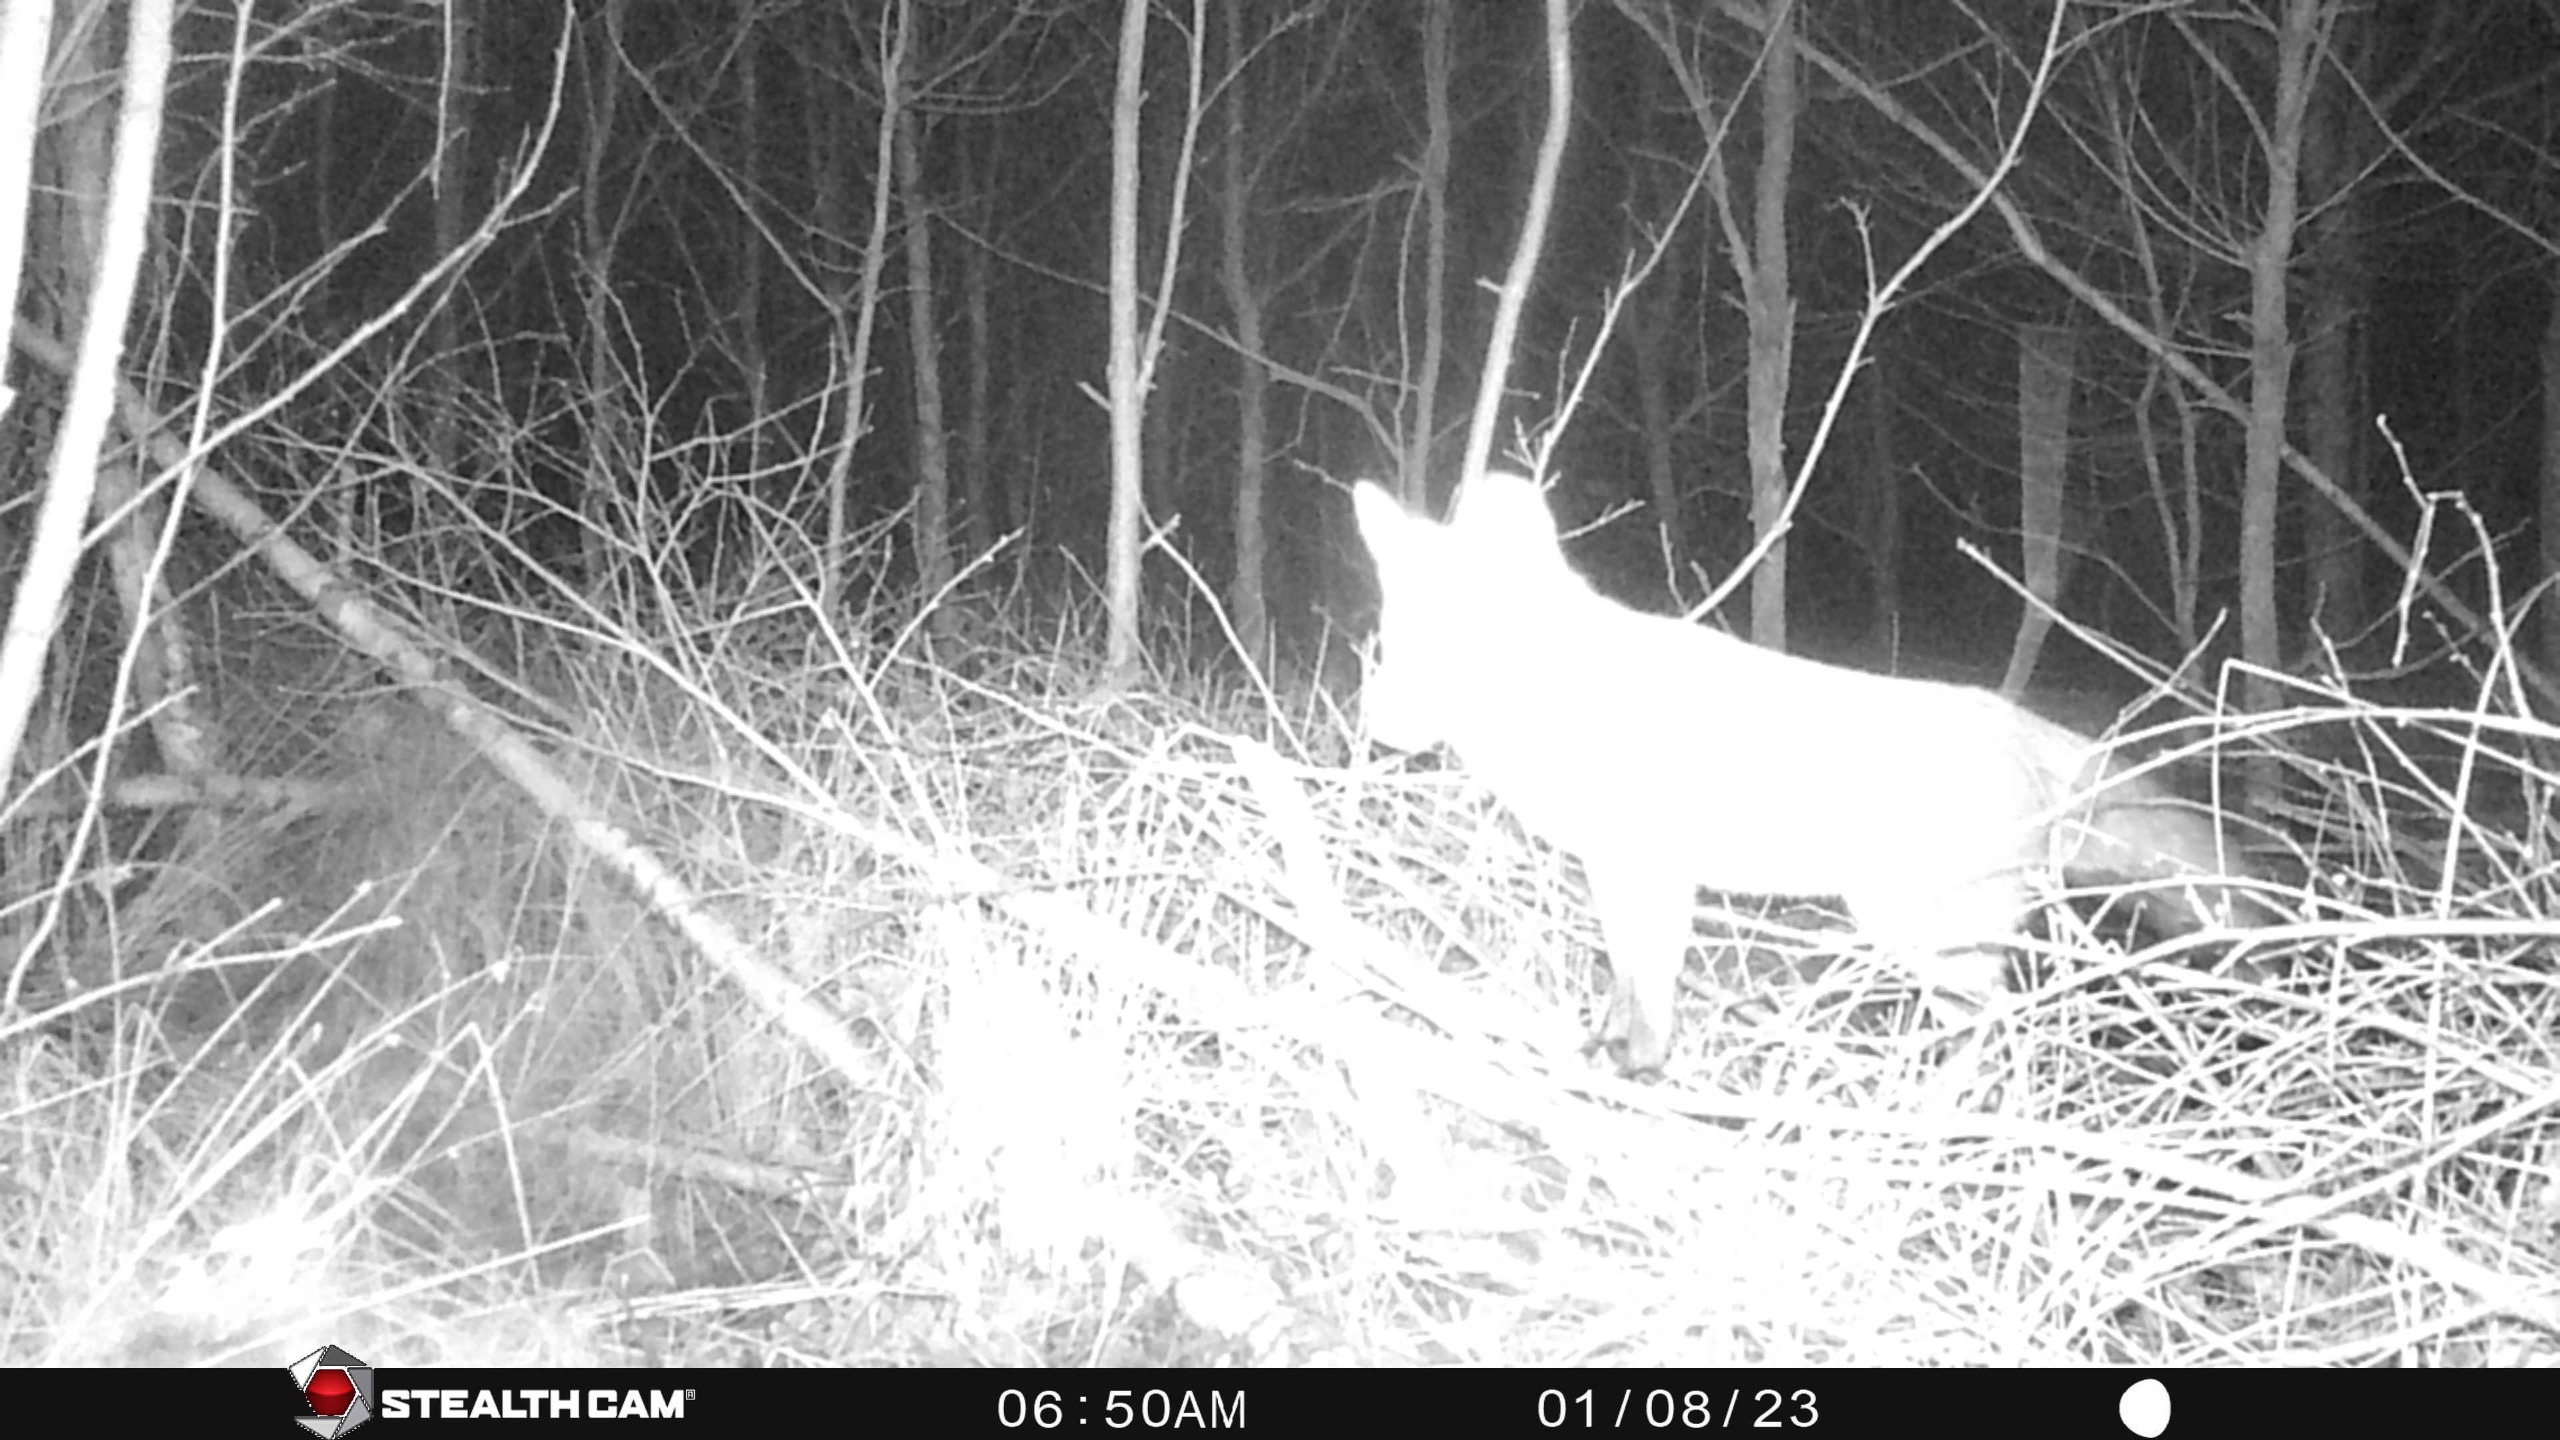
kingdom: Animalia
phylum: Chordata
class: Mammalia
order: Carnivora
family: Canidae
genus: Vulpes
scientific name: Vulpes vulpes
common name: Ræv
